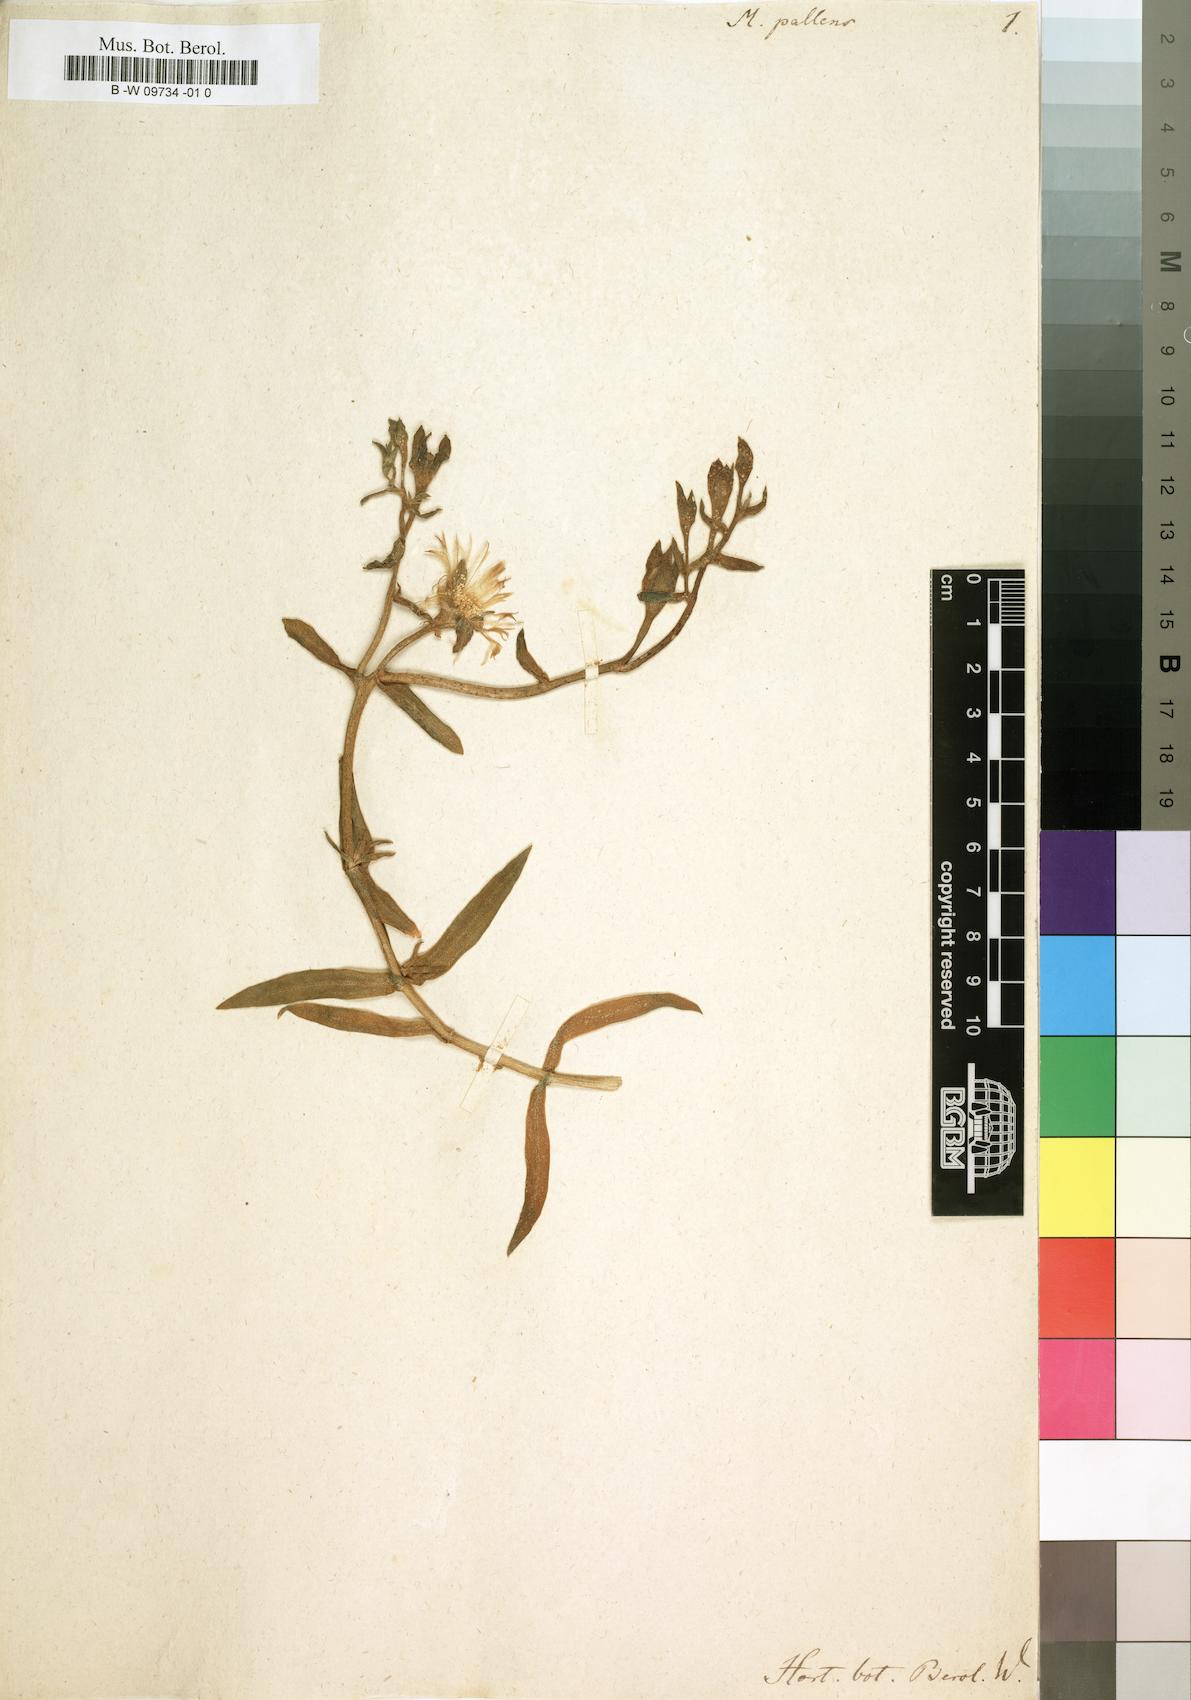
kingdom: Plantae
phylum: Tracheophyta
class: Magnoliopsida
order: Caryophyllales
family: Aizoaceae
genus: Mesembryanthemum
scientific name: Mesembryanthemum pallens
